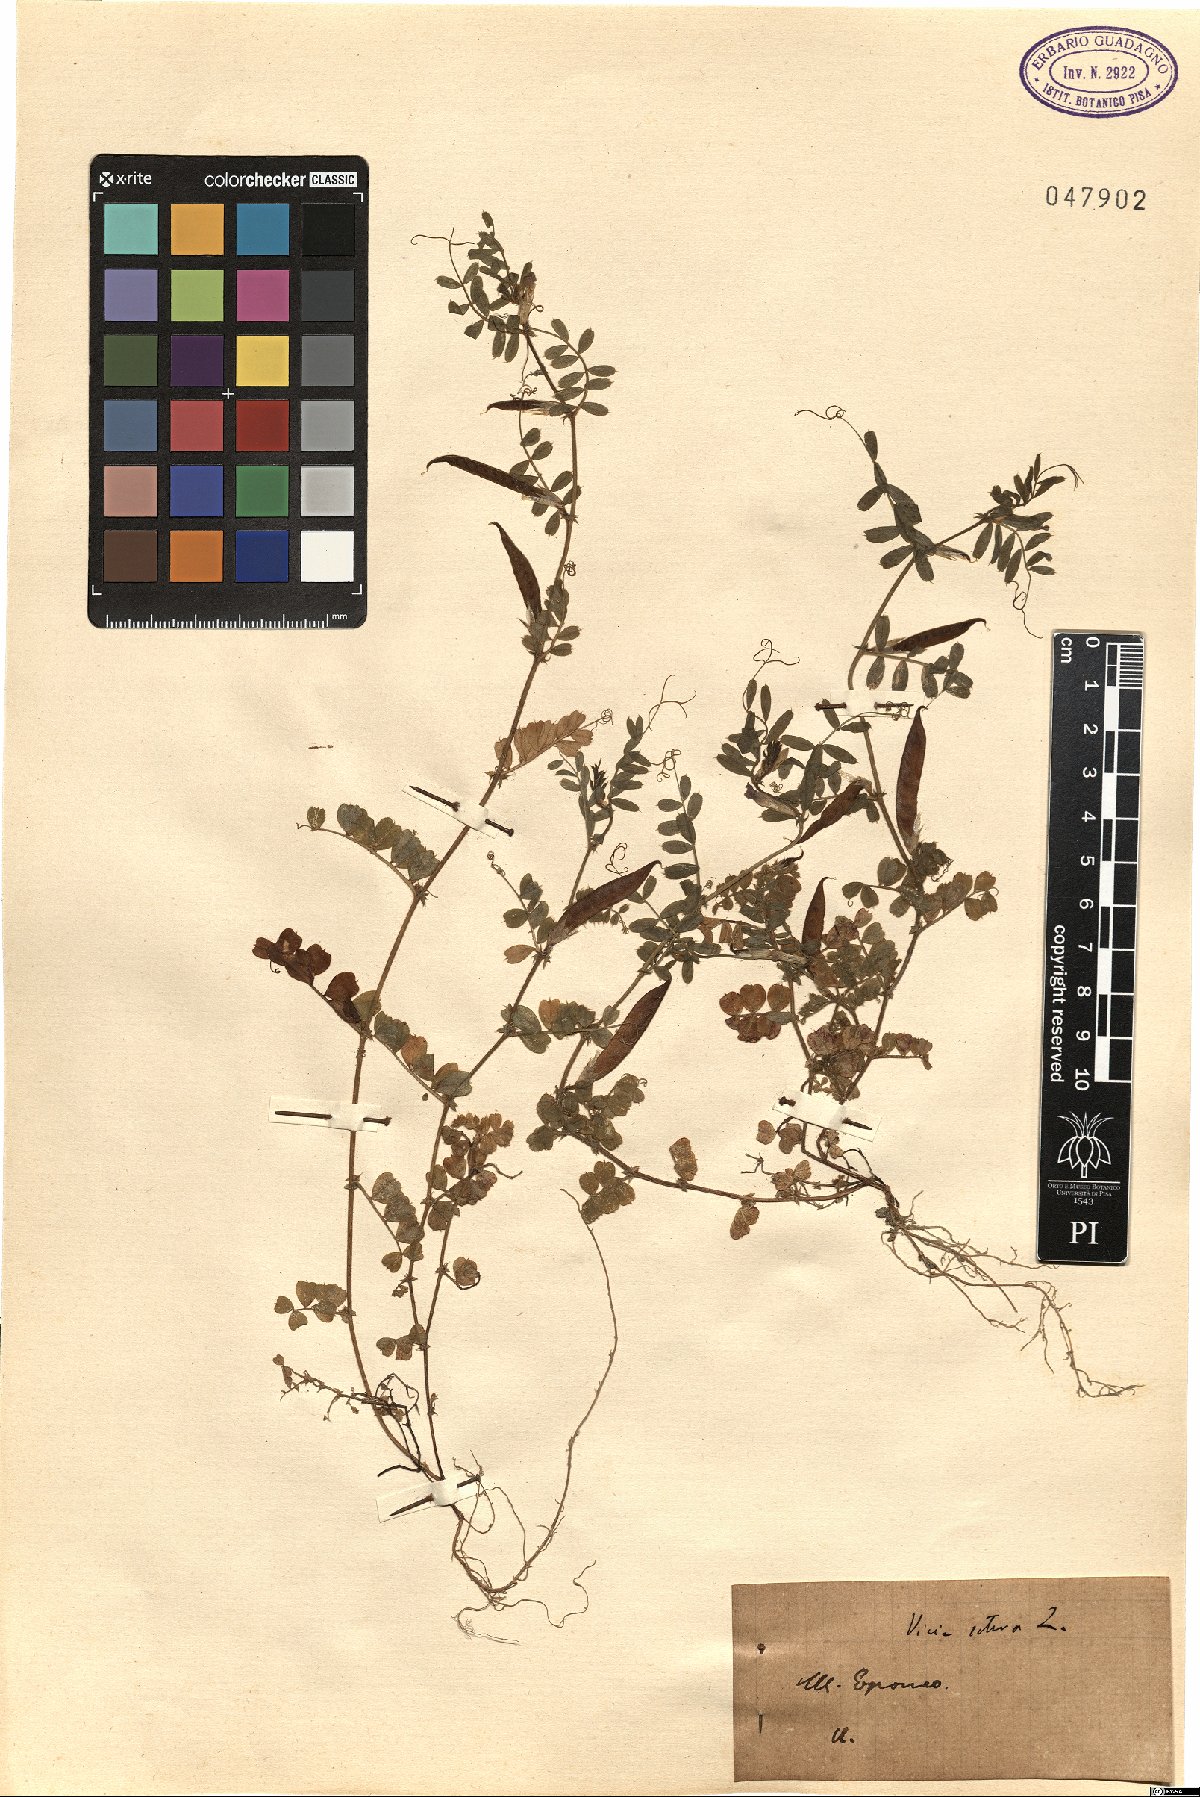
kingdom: Plantae
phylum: Tracheophyta
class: Magnoliopsida
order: Fabales
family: Fabaceae
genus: Vicia
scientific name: Vicia sativa
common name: Garden vetch
